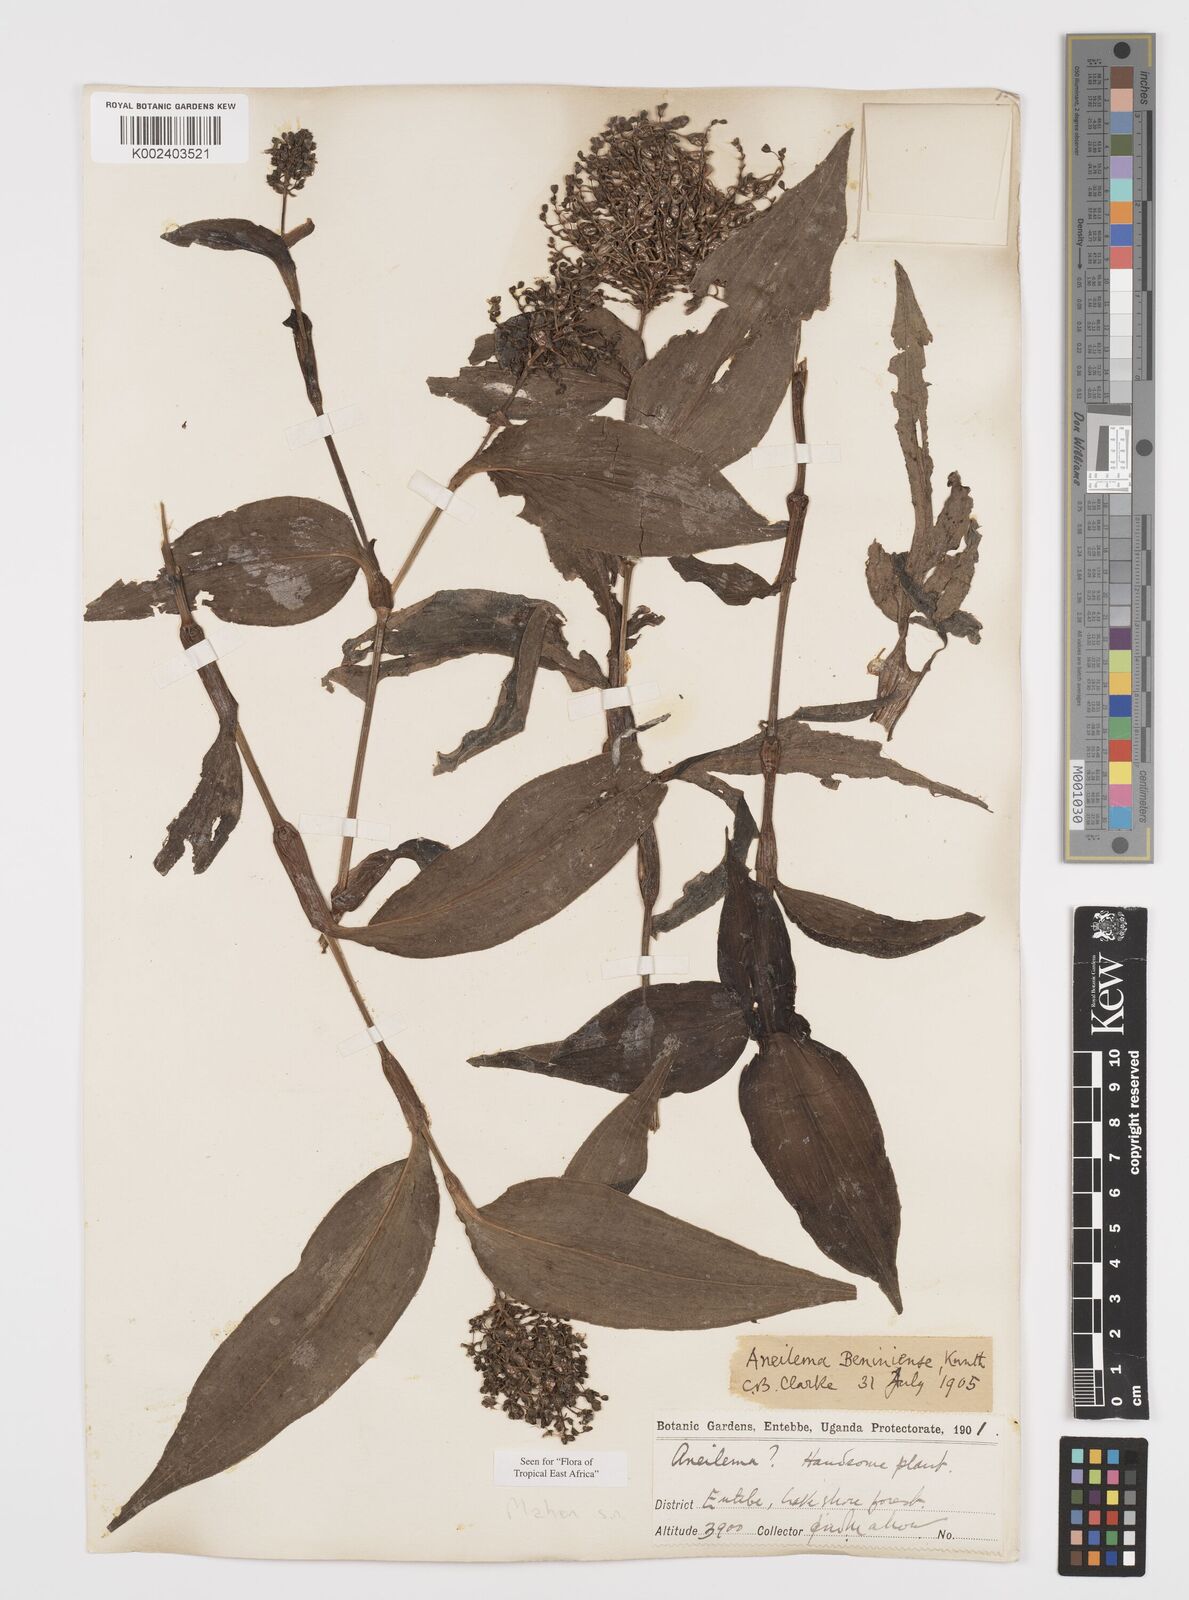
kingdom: Plantae
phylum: Tracheophyta
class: Liliopsida
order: Commelinales
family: Commelinaceae
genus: Aneilema
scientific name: Aneilema beniniense
